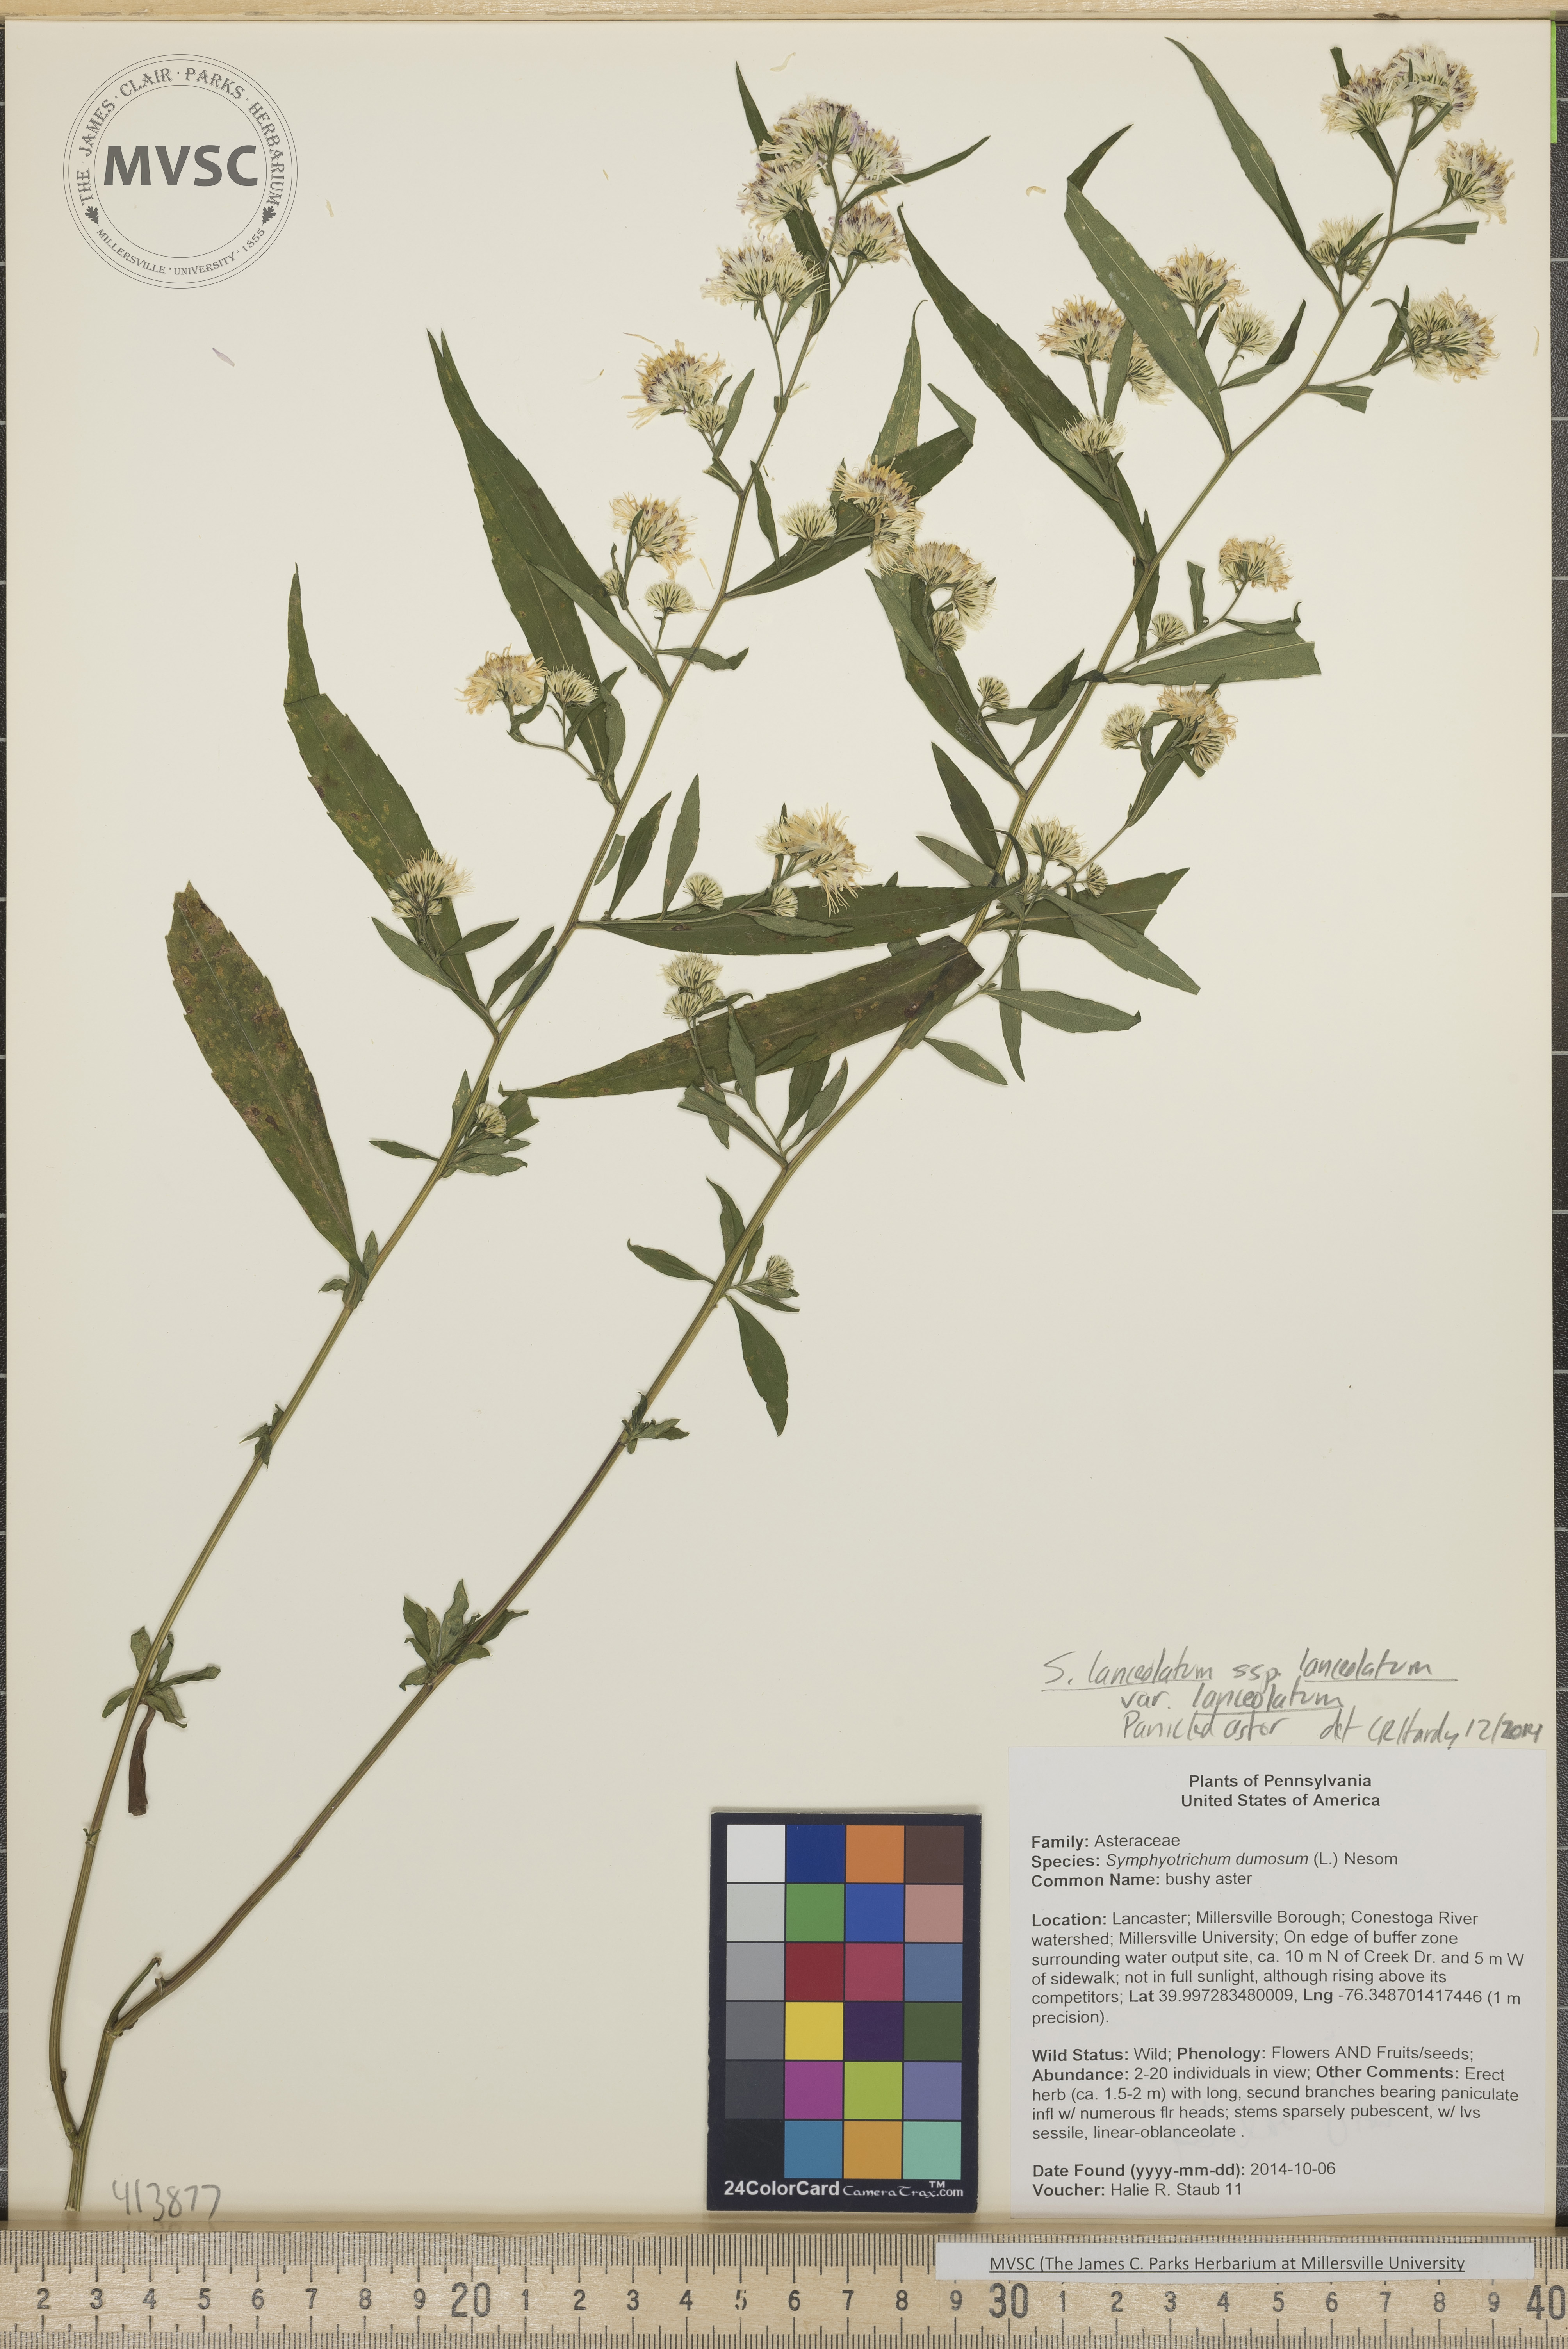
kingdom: Plantae
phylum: Tracheophyta
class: Magnoliopsida
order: Asterales
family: Asteraceae
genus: Symphyotrichum
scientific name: Symphyotrichum lanceolatum
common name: panicled aster
